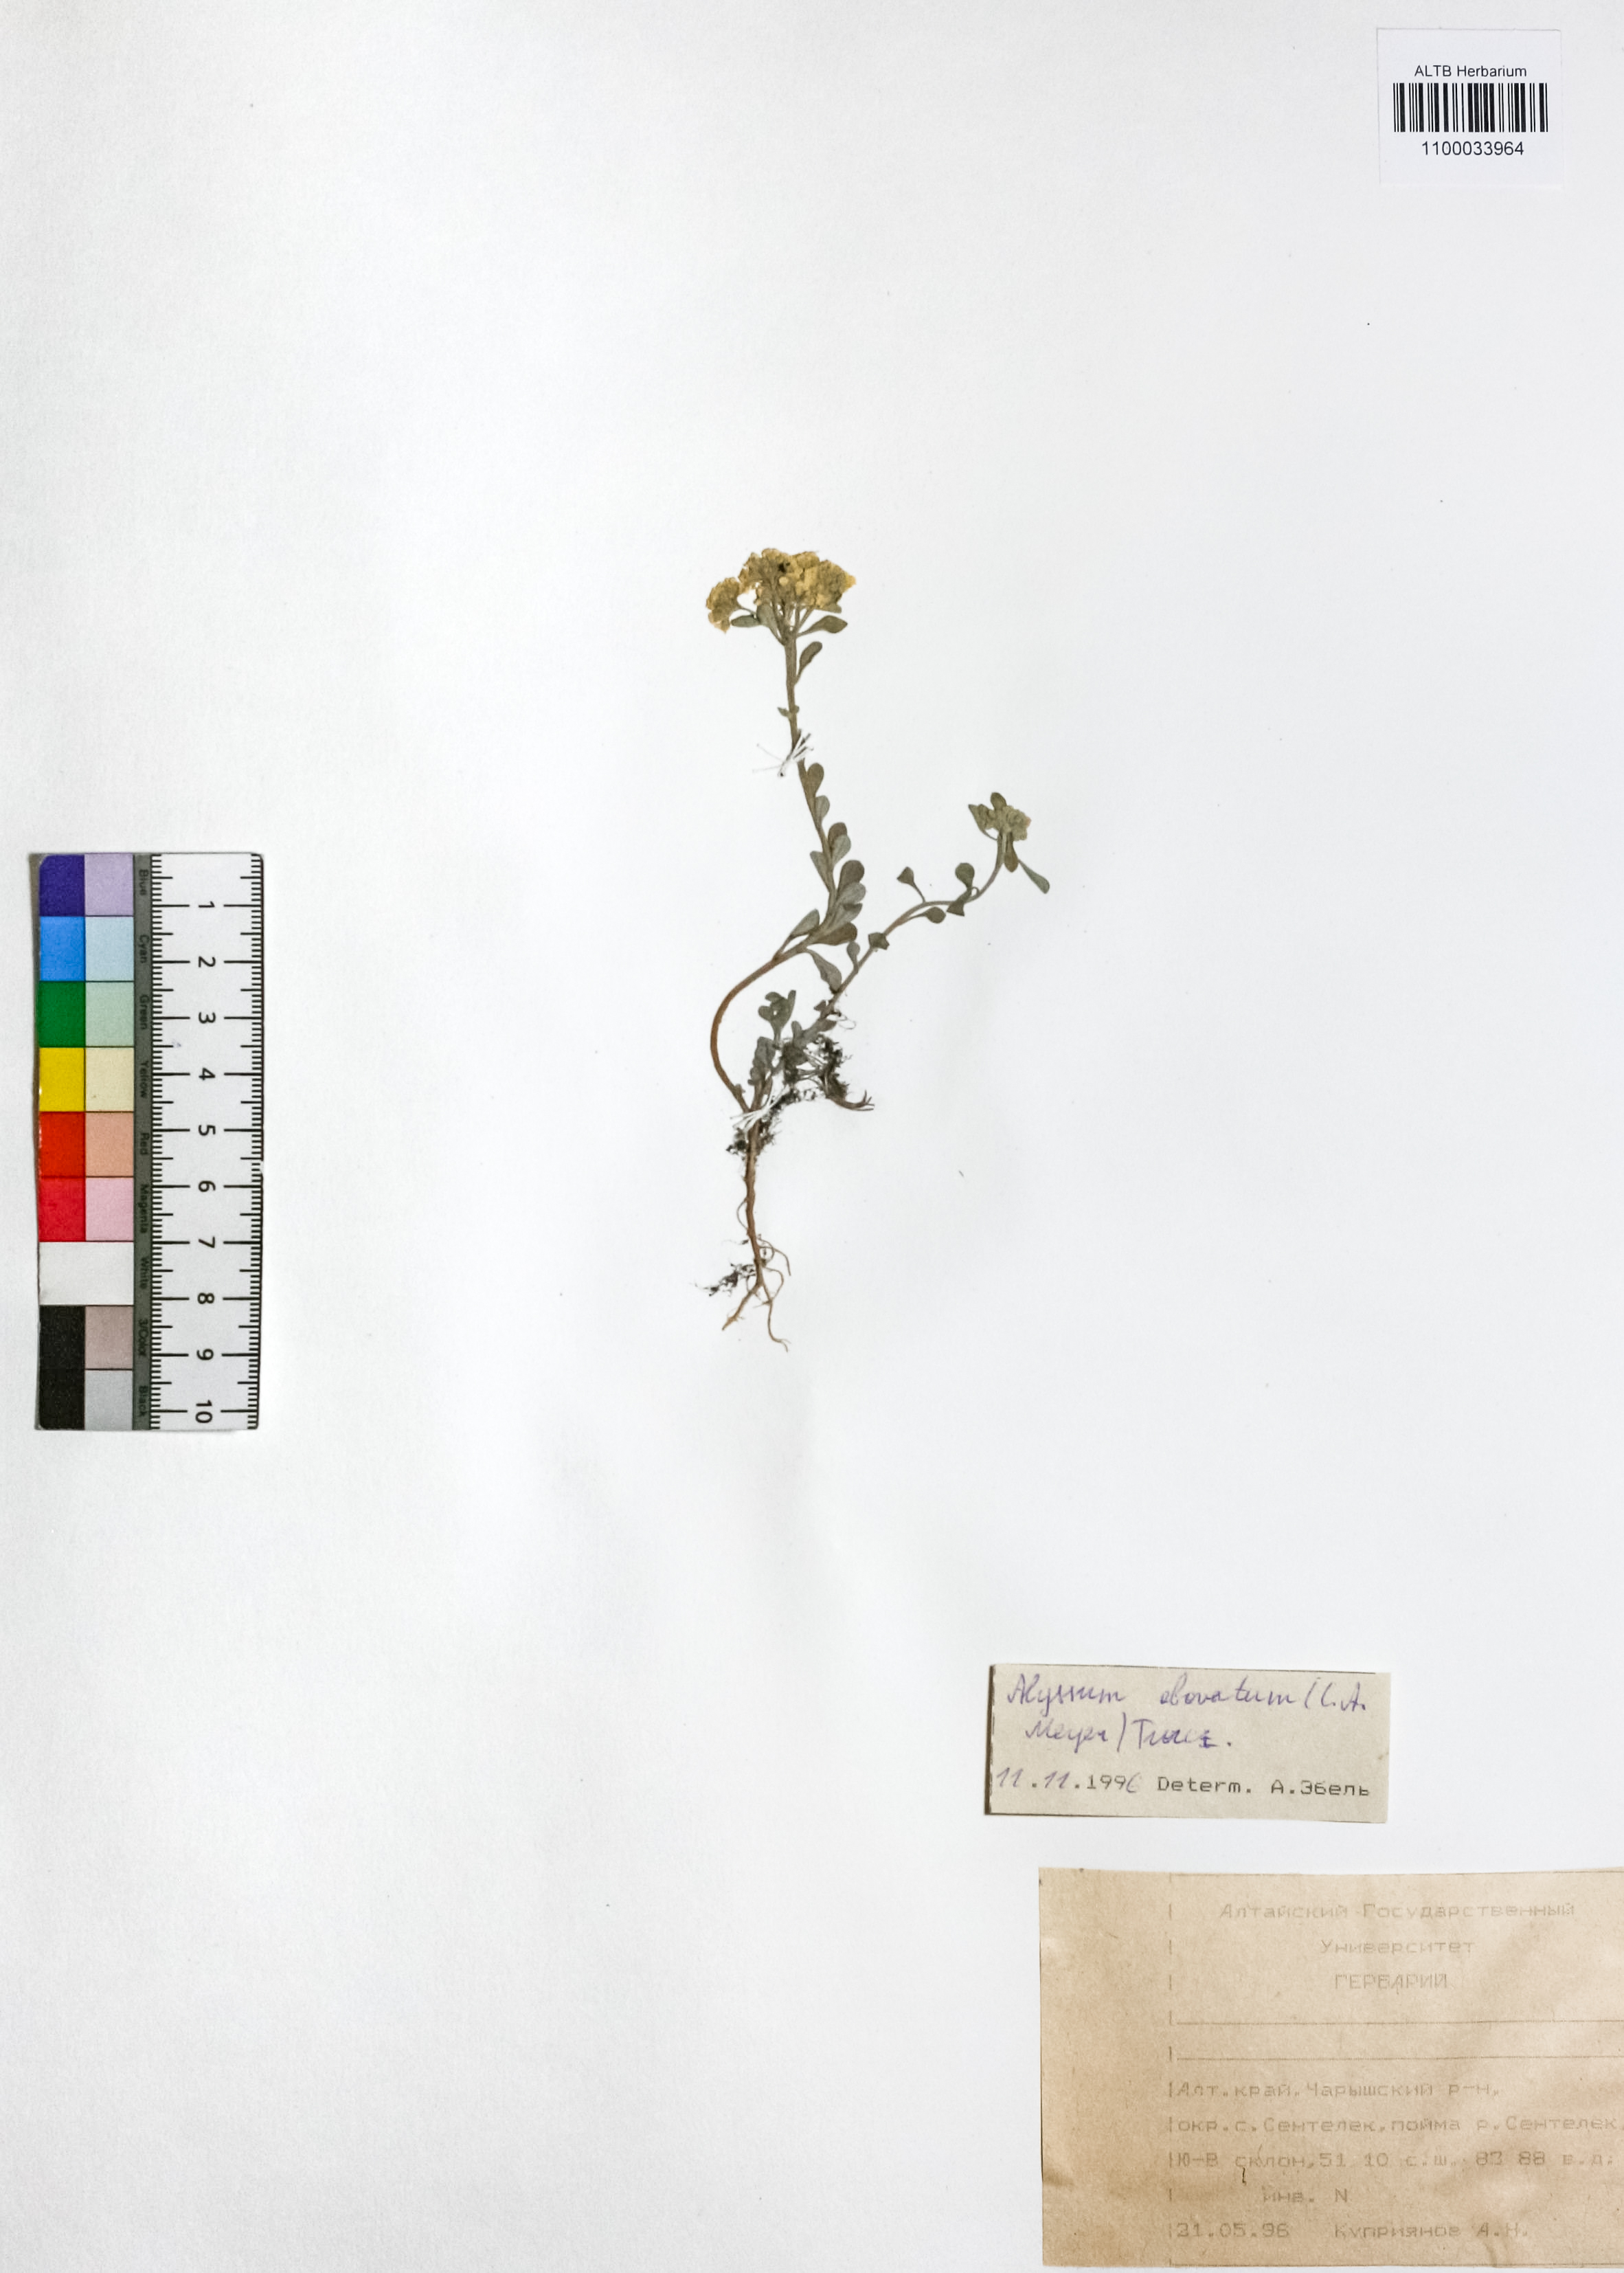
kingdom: Plantae
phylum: Tracheophyta
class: Magnoliopsida
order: Brassicales
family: Brassicaceae
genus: Odontarrhena
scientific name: Odontarrhena obovata
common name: American alyssum
